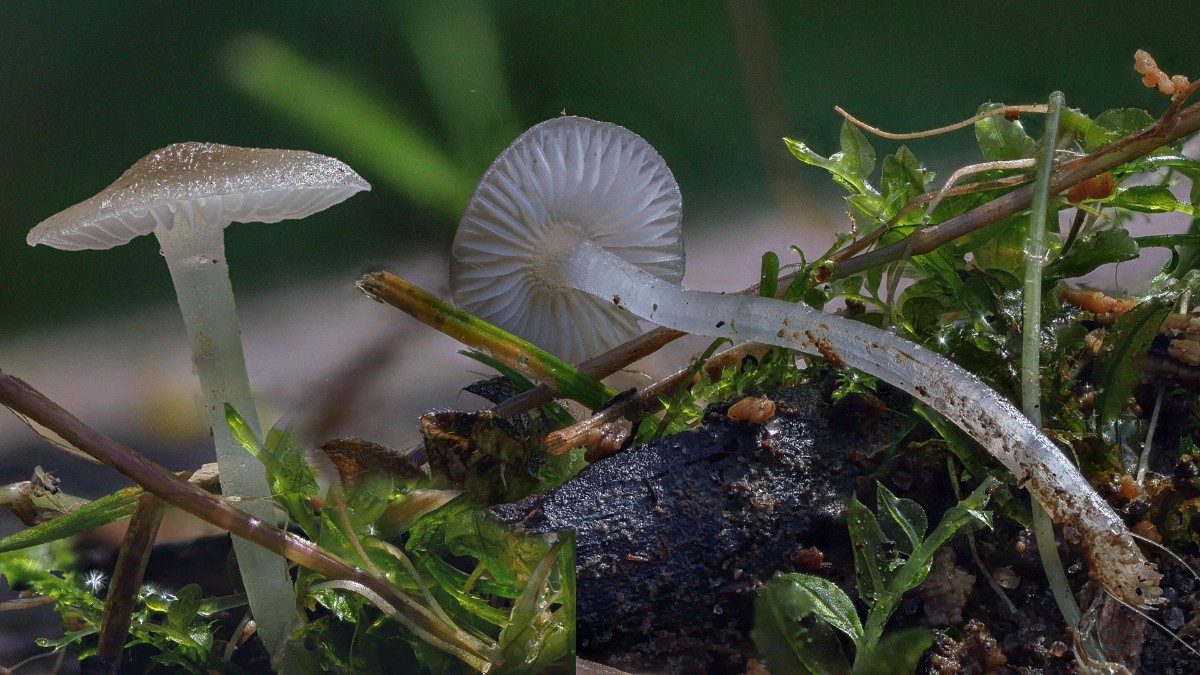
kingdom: Fungi
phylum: Basidiomycota
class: Agaricomycetes
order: Agaricales
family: Mycenaceae
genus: Hydropus
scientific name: Hydropus
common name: fnugfod
